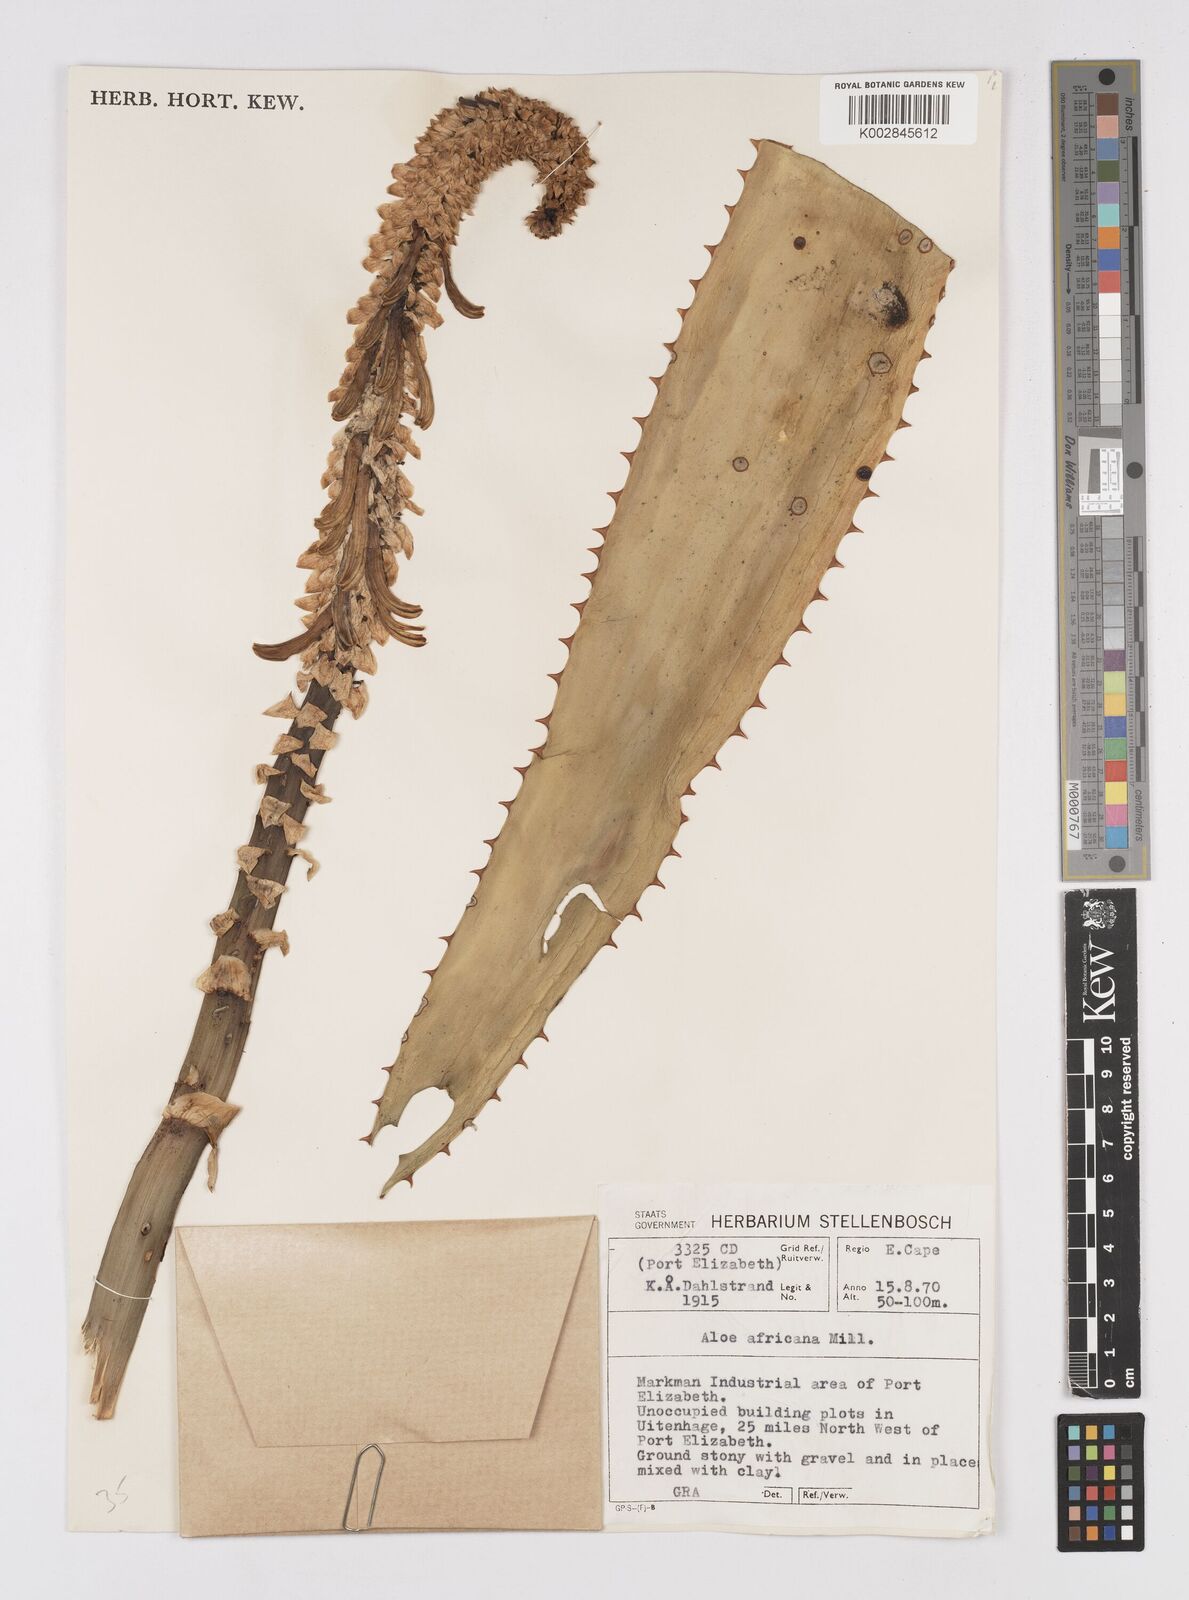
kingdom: Plantae
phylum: Tracheophyta
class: Liliopsida
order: Asparagales
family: Asphodelaceae
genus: Aloe
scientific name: Aloe africana
